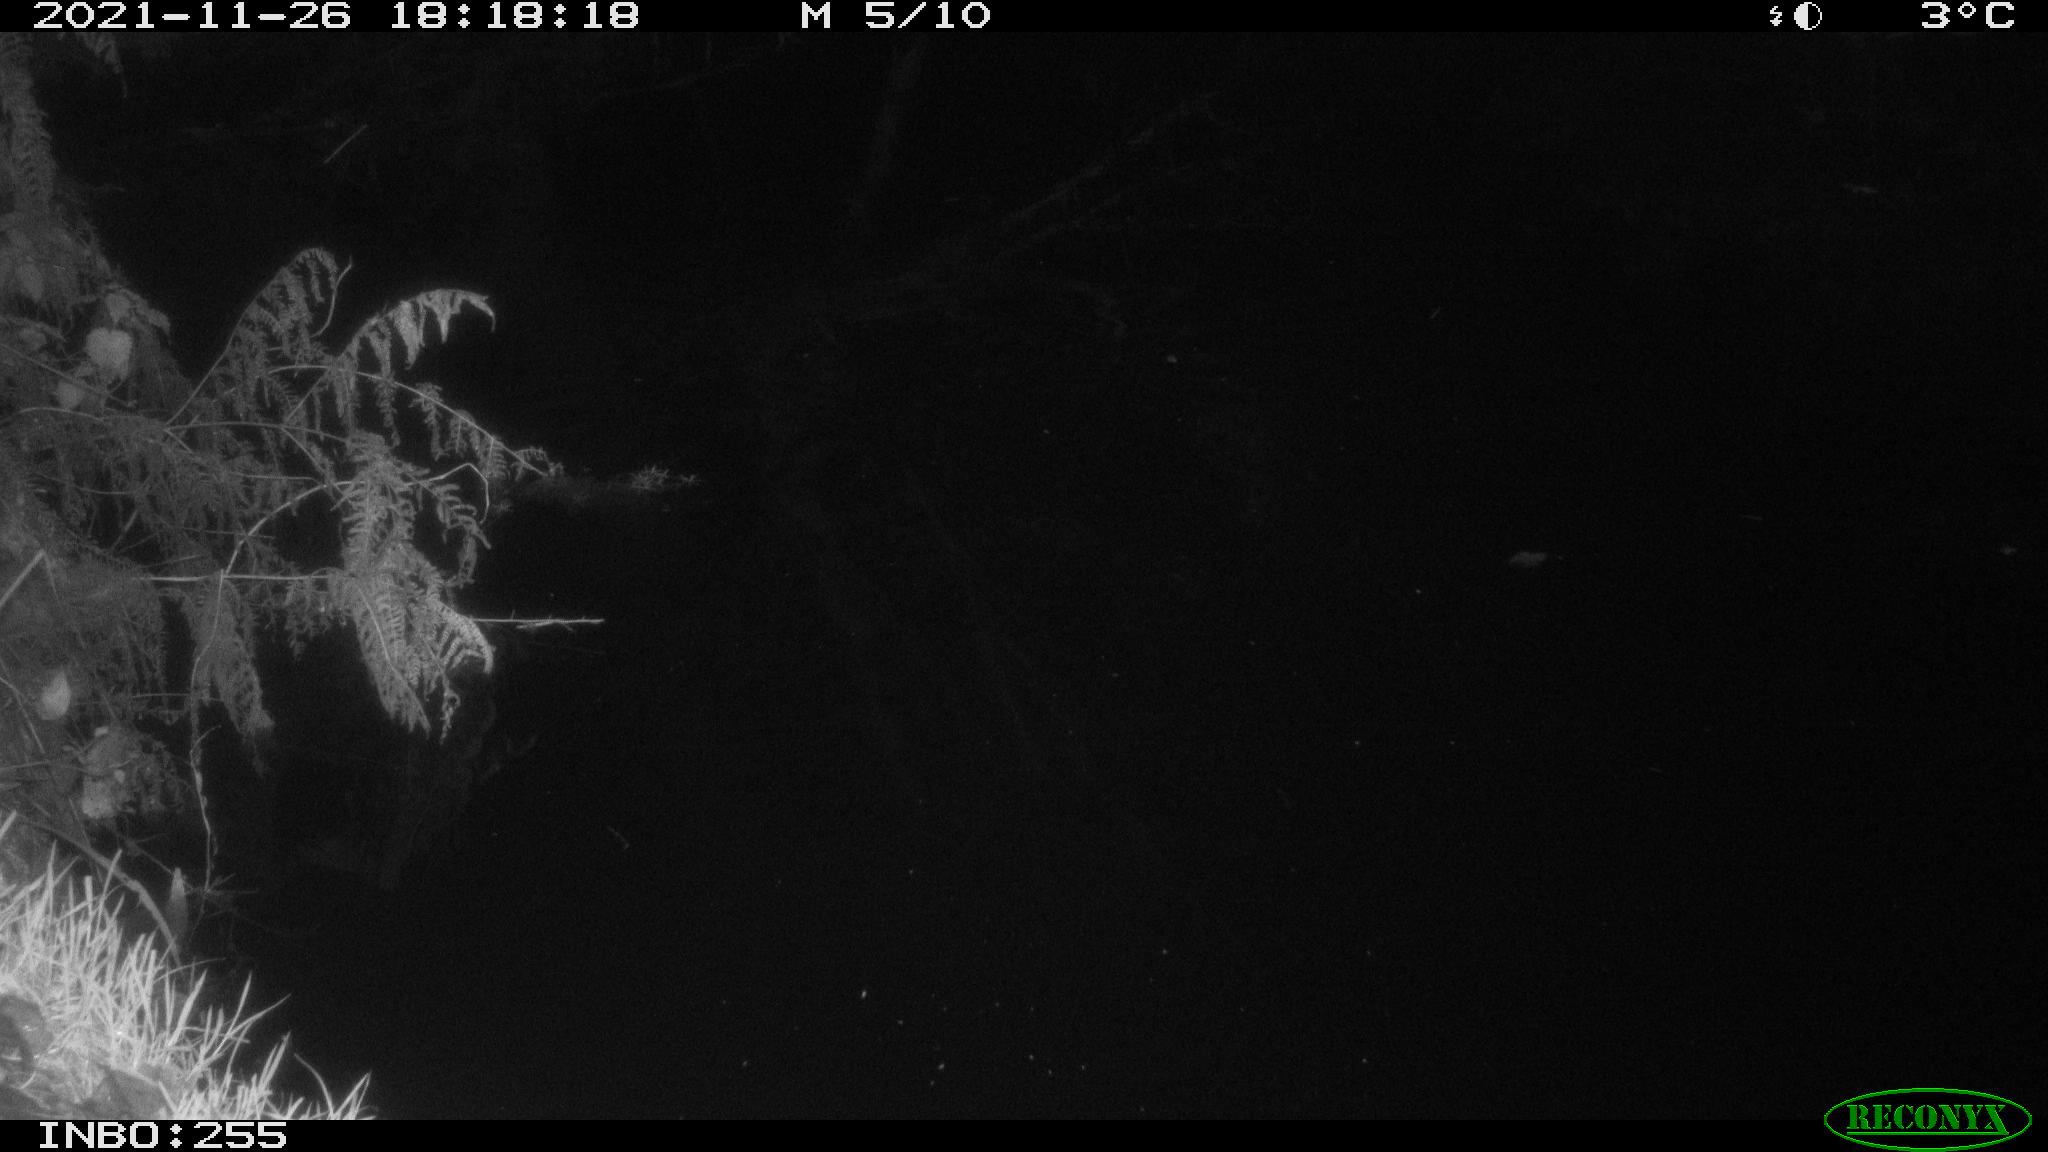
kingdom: Animalia
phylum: Chordata
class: Mammalia
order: Rodentia
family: Muridae
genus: Rattus
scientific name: Rattus norvegicus
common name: Brown rat
